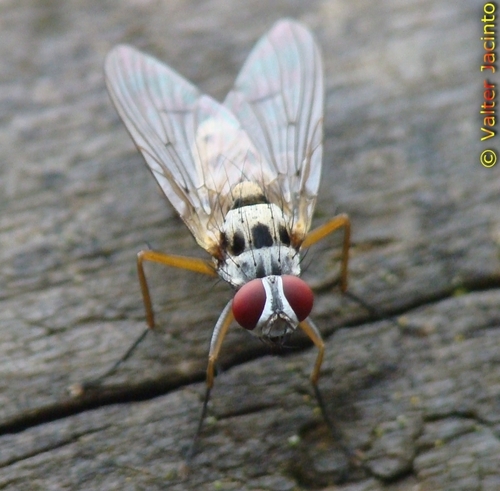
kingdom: Animalia
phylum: Arthropoda
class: Insecta
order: Diptera
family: Muscidae
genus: Helina
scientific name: Helina clara
